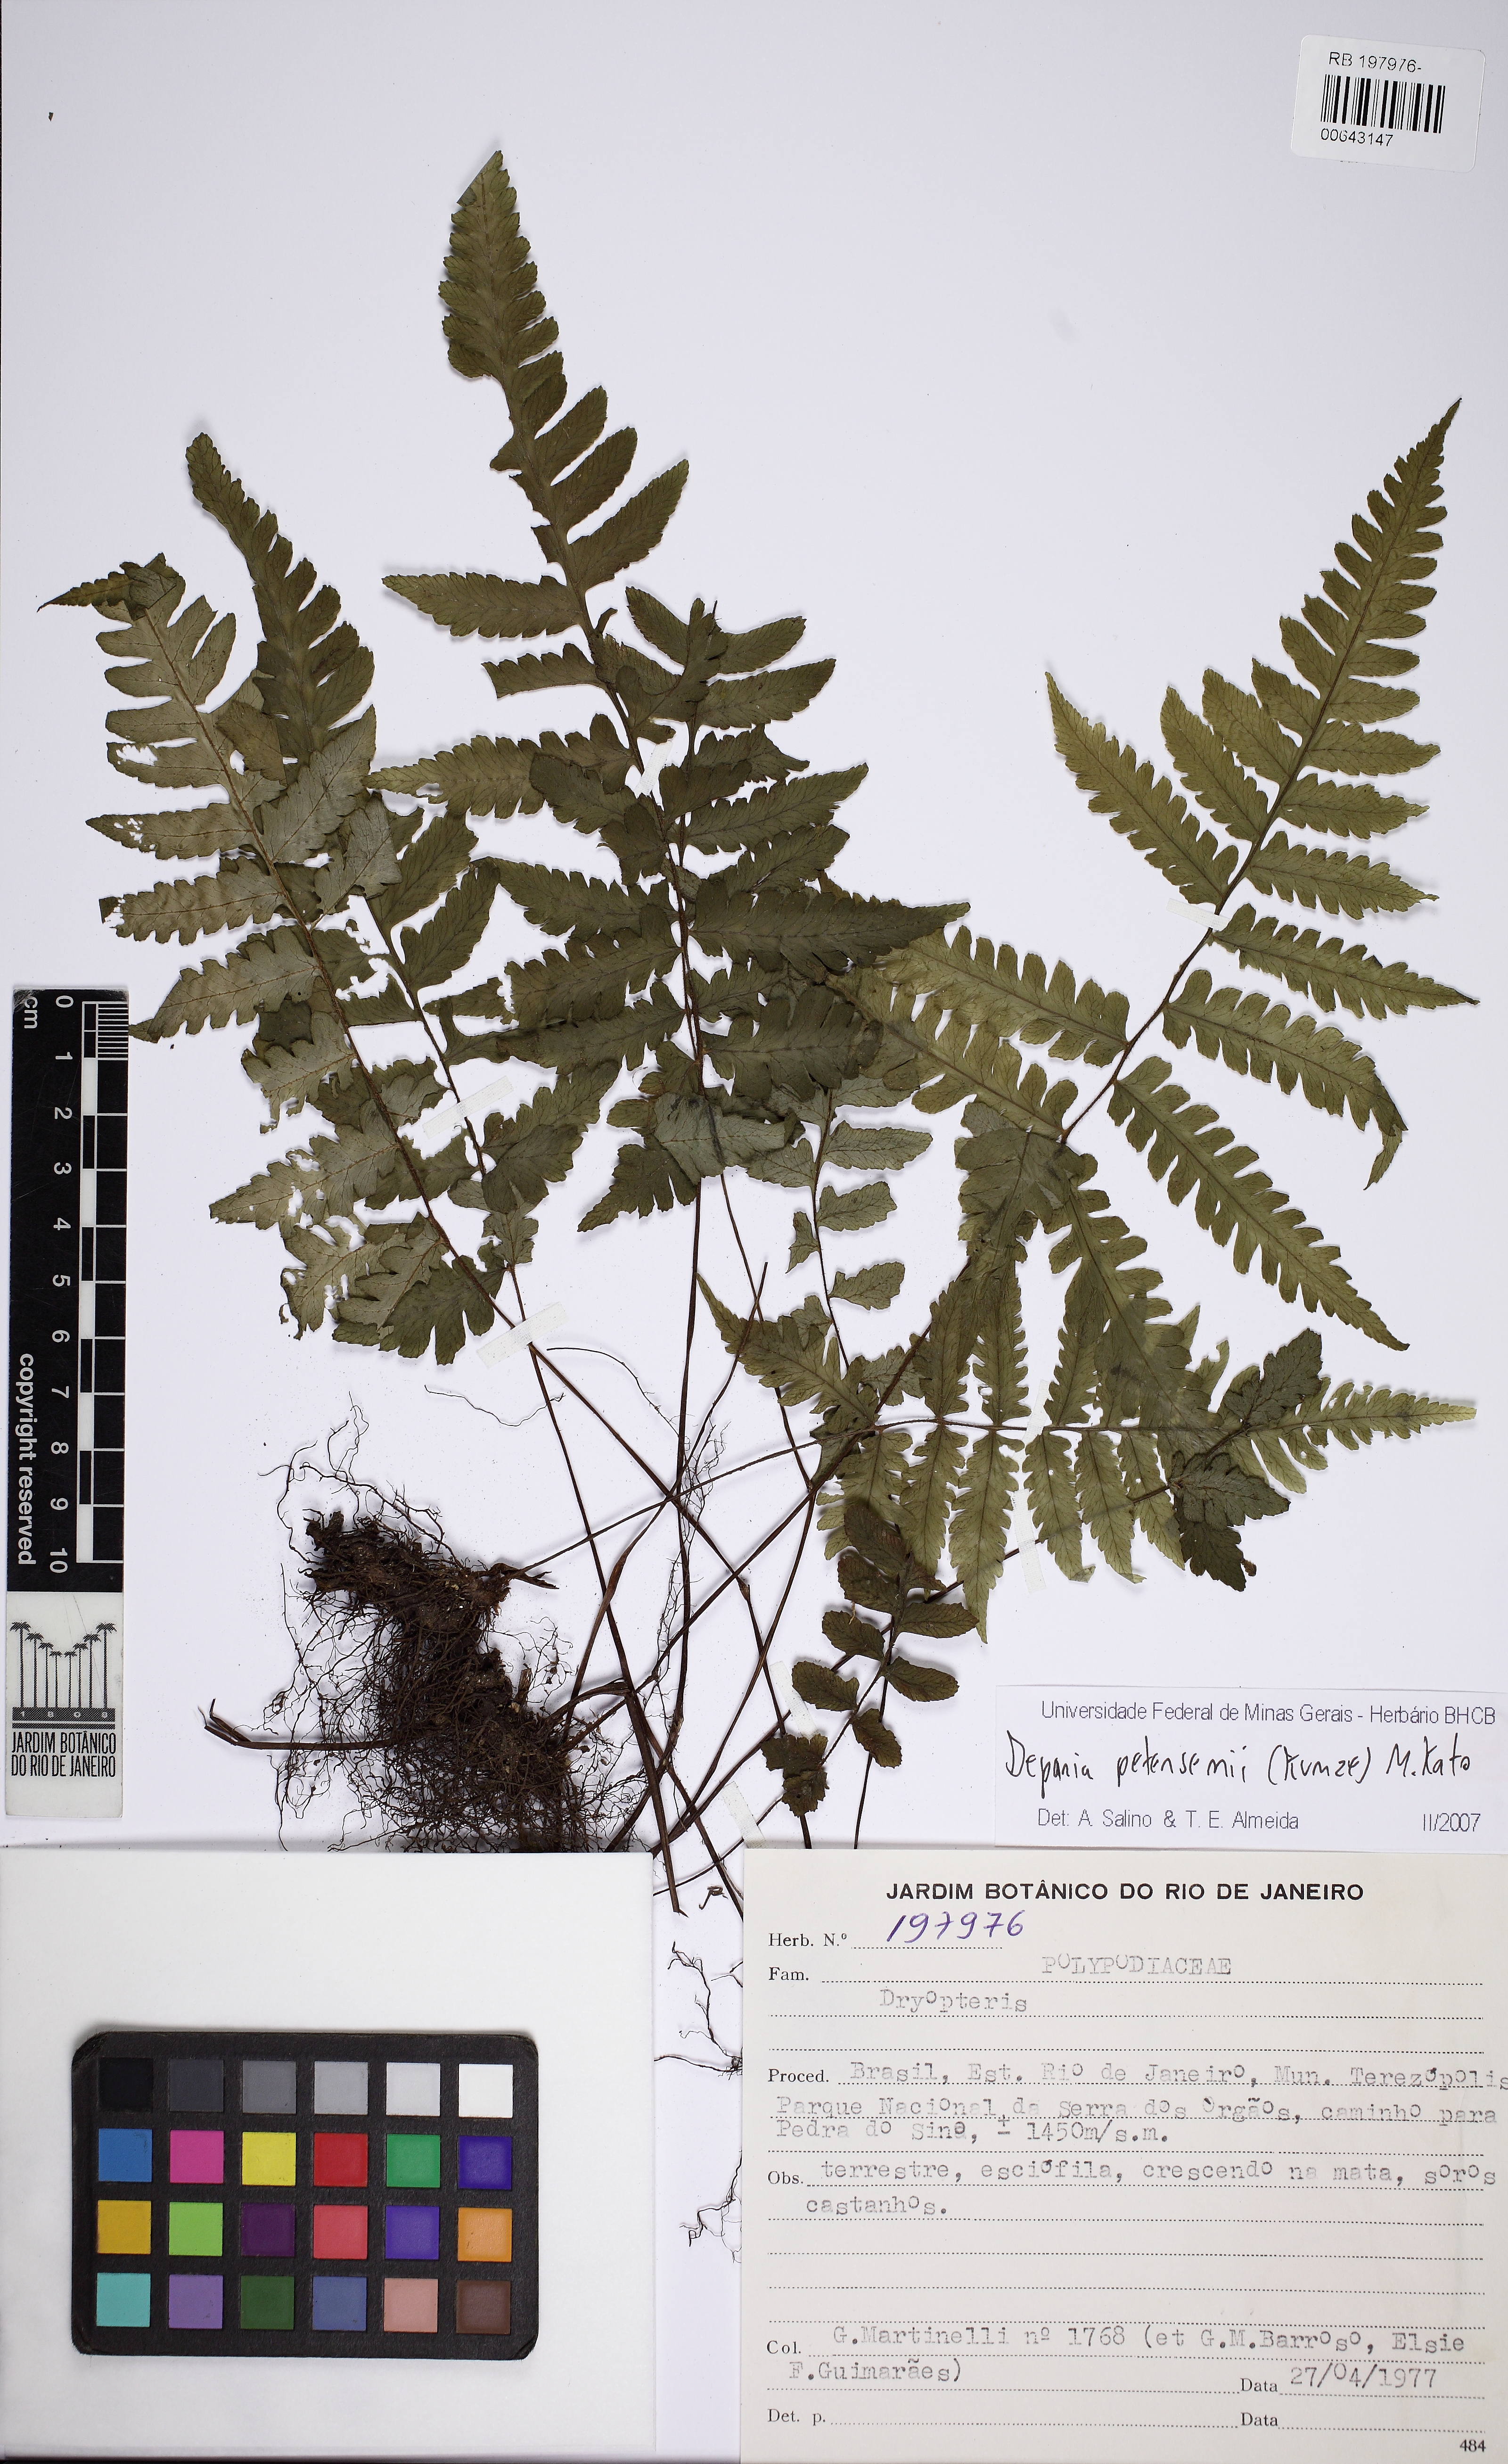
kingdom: Plantae
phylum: Tracheophyta
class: Polypodiopsida
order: Polypodiales
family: Athyriaceae
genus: Deparia
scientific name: Deparia petersenii
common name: Japanese false spleenwort
